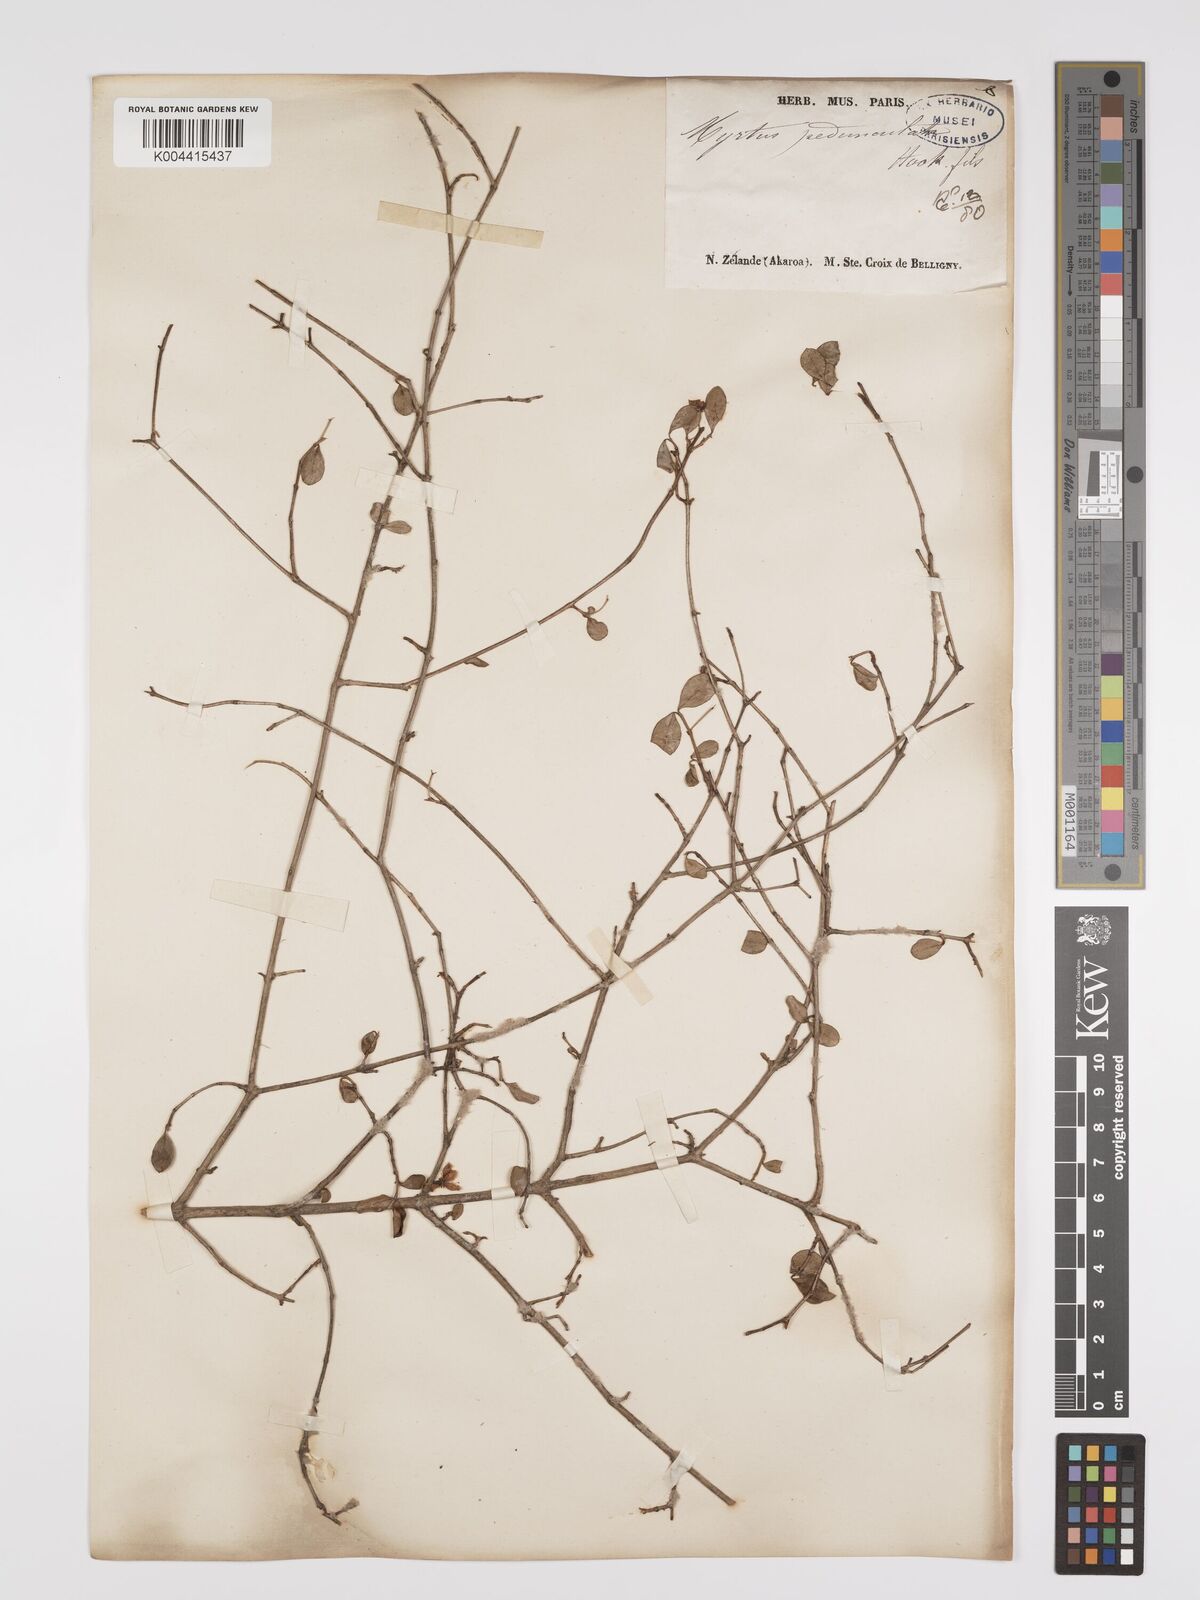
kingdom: Plantae
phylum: Tracheophyta
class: Magnoliopsida
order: Myrtales
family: Myrtaceae
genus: Neomyrtus
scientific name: Neomyrtus pedunculata
